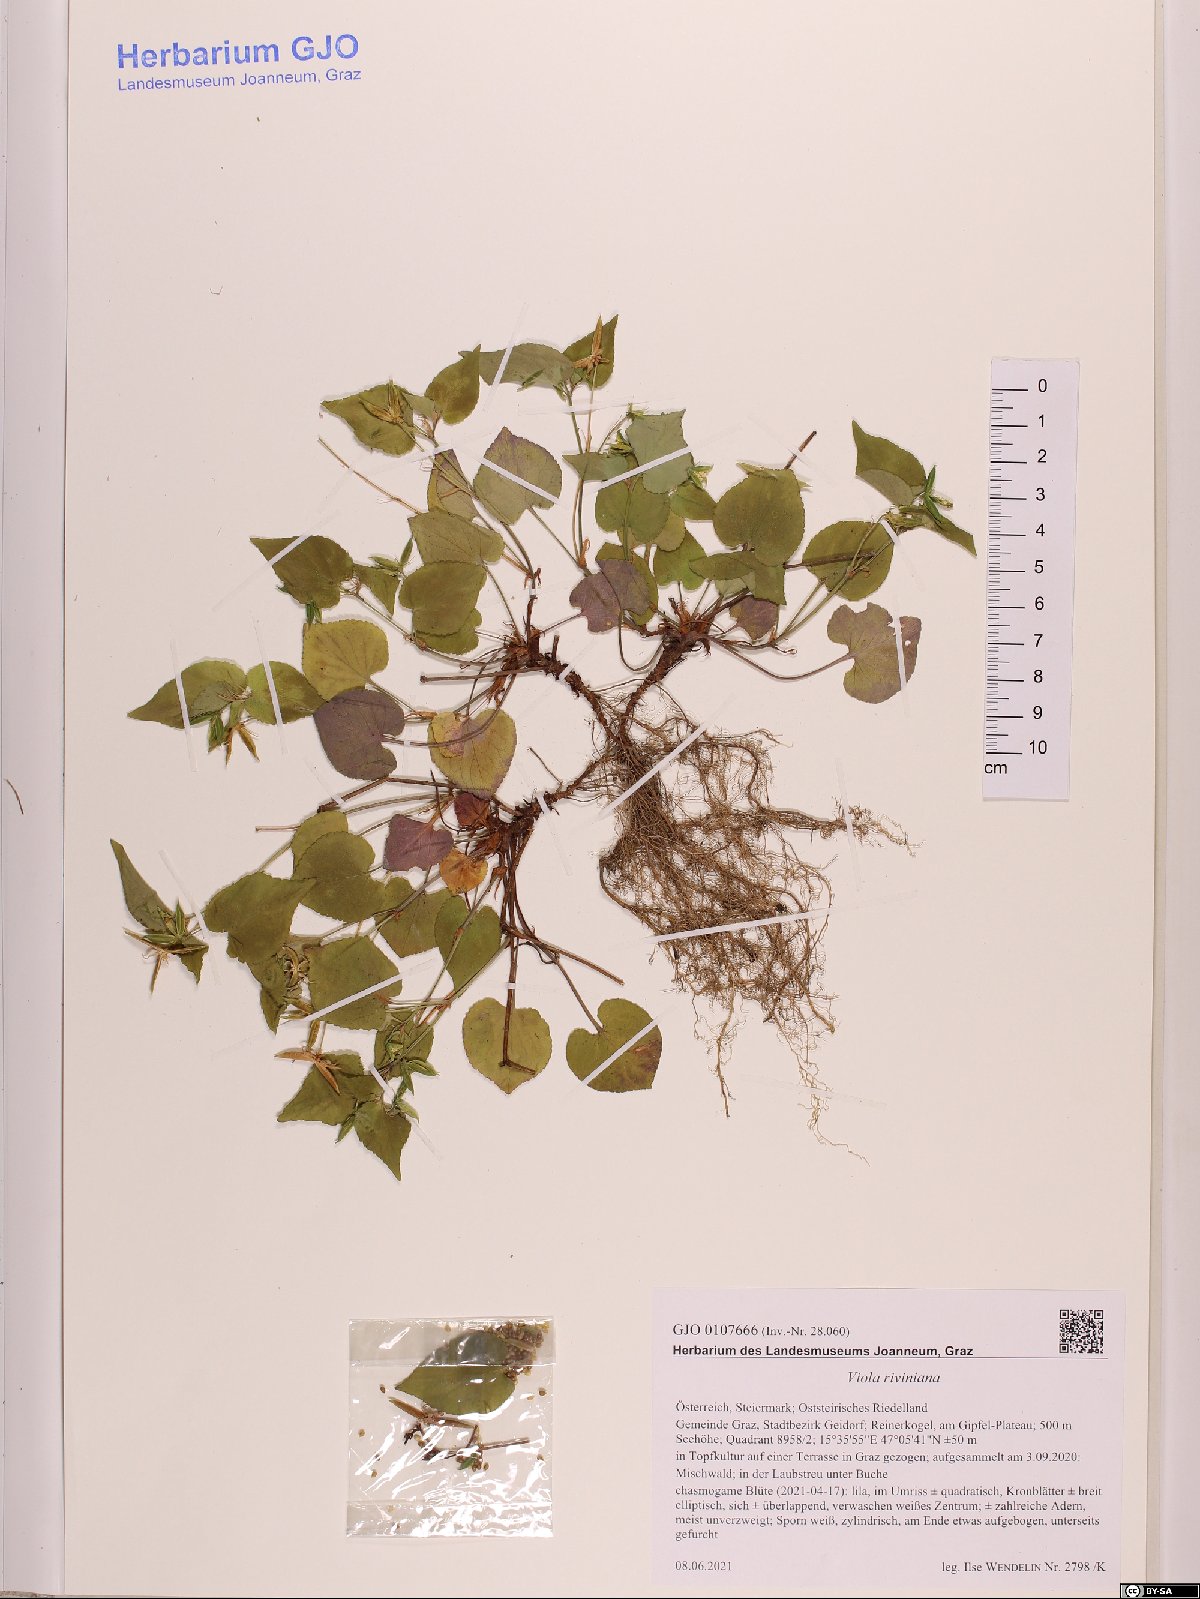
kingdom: Plantae
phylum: Tracheophyta
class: Magnoliopsida
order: Malpighiales
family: Violaceae
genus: Viola
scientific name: Viola riviniana
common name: Common dog-violet
